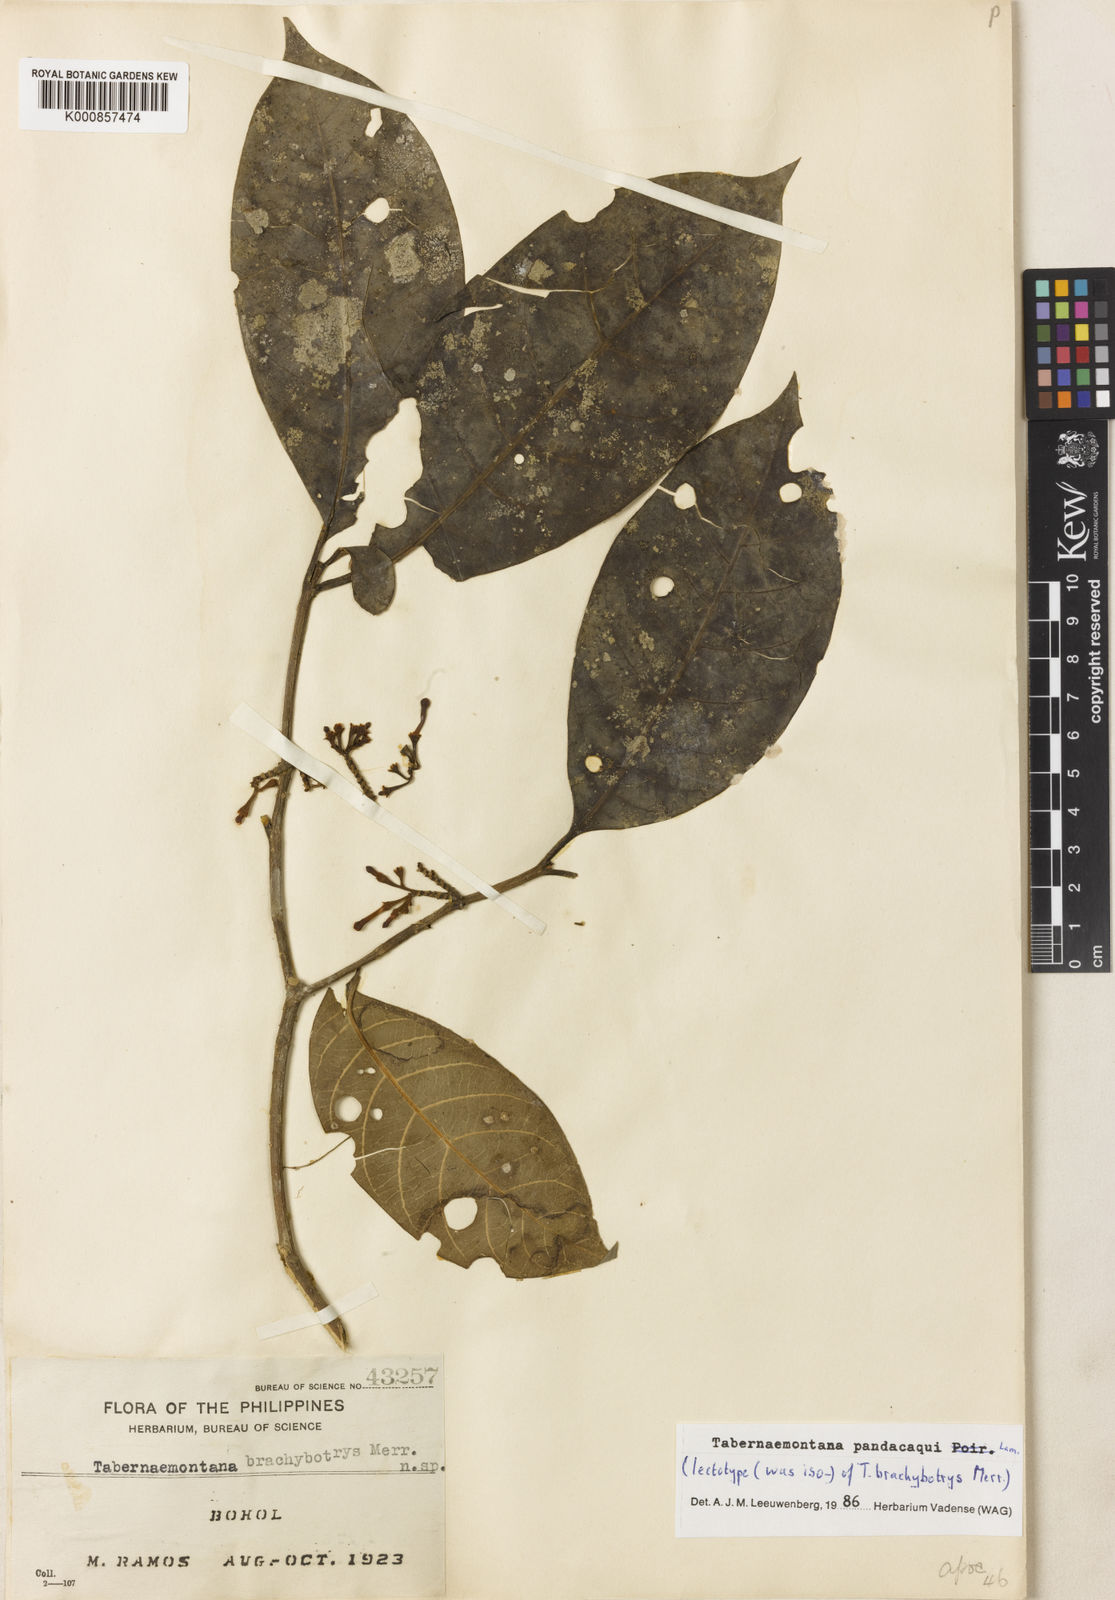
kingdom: Plantae
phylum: Tracheophyta
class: Magnoliopsida
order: Gentianales
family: Apocynaceae
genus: Tabernaemontana
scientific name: Tabernaemontana
